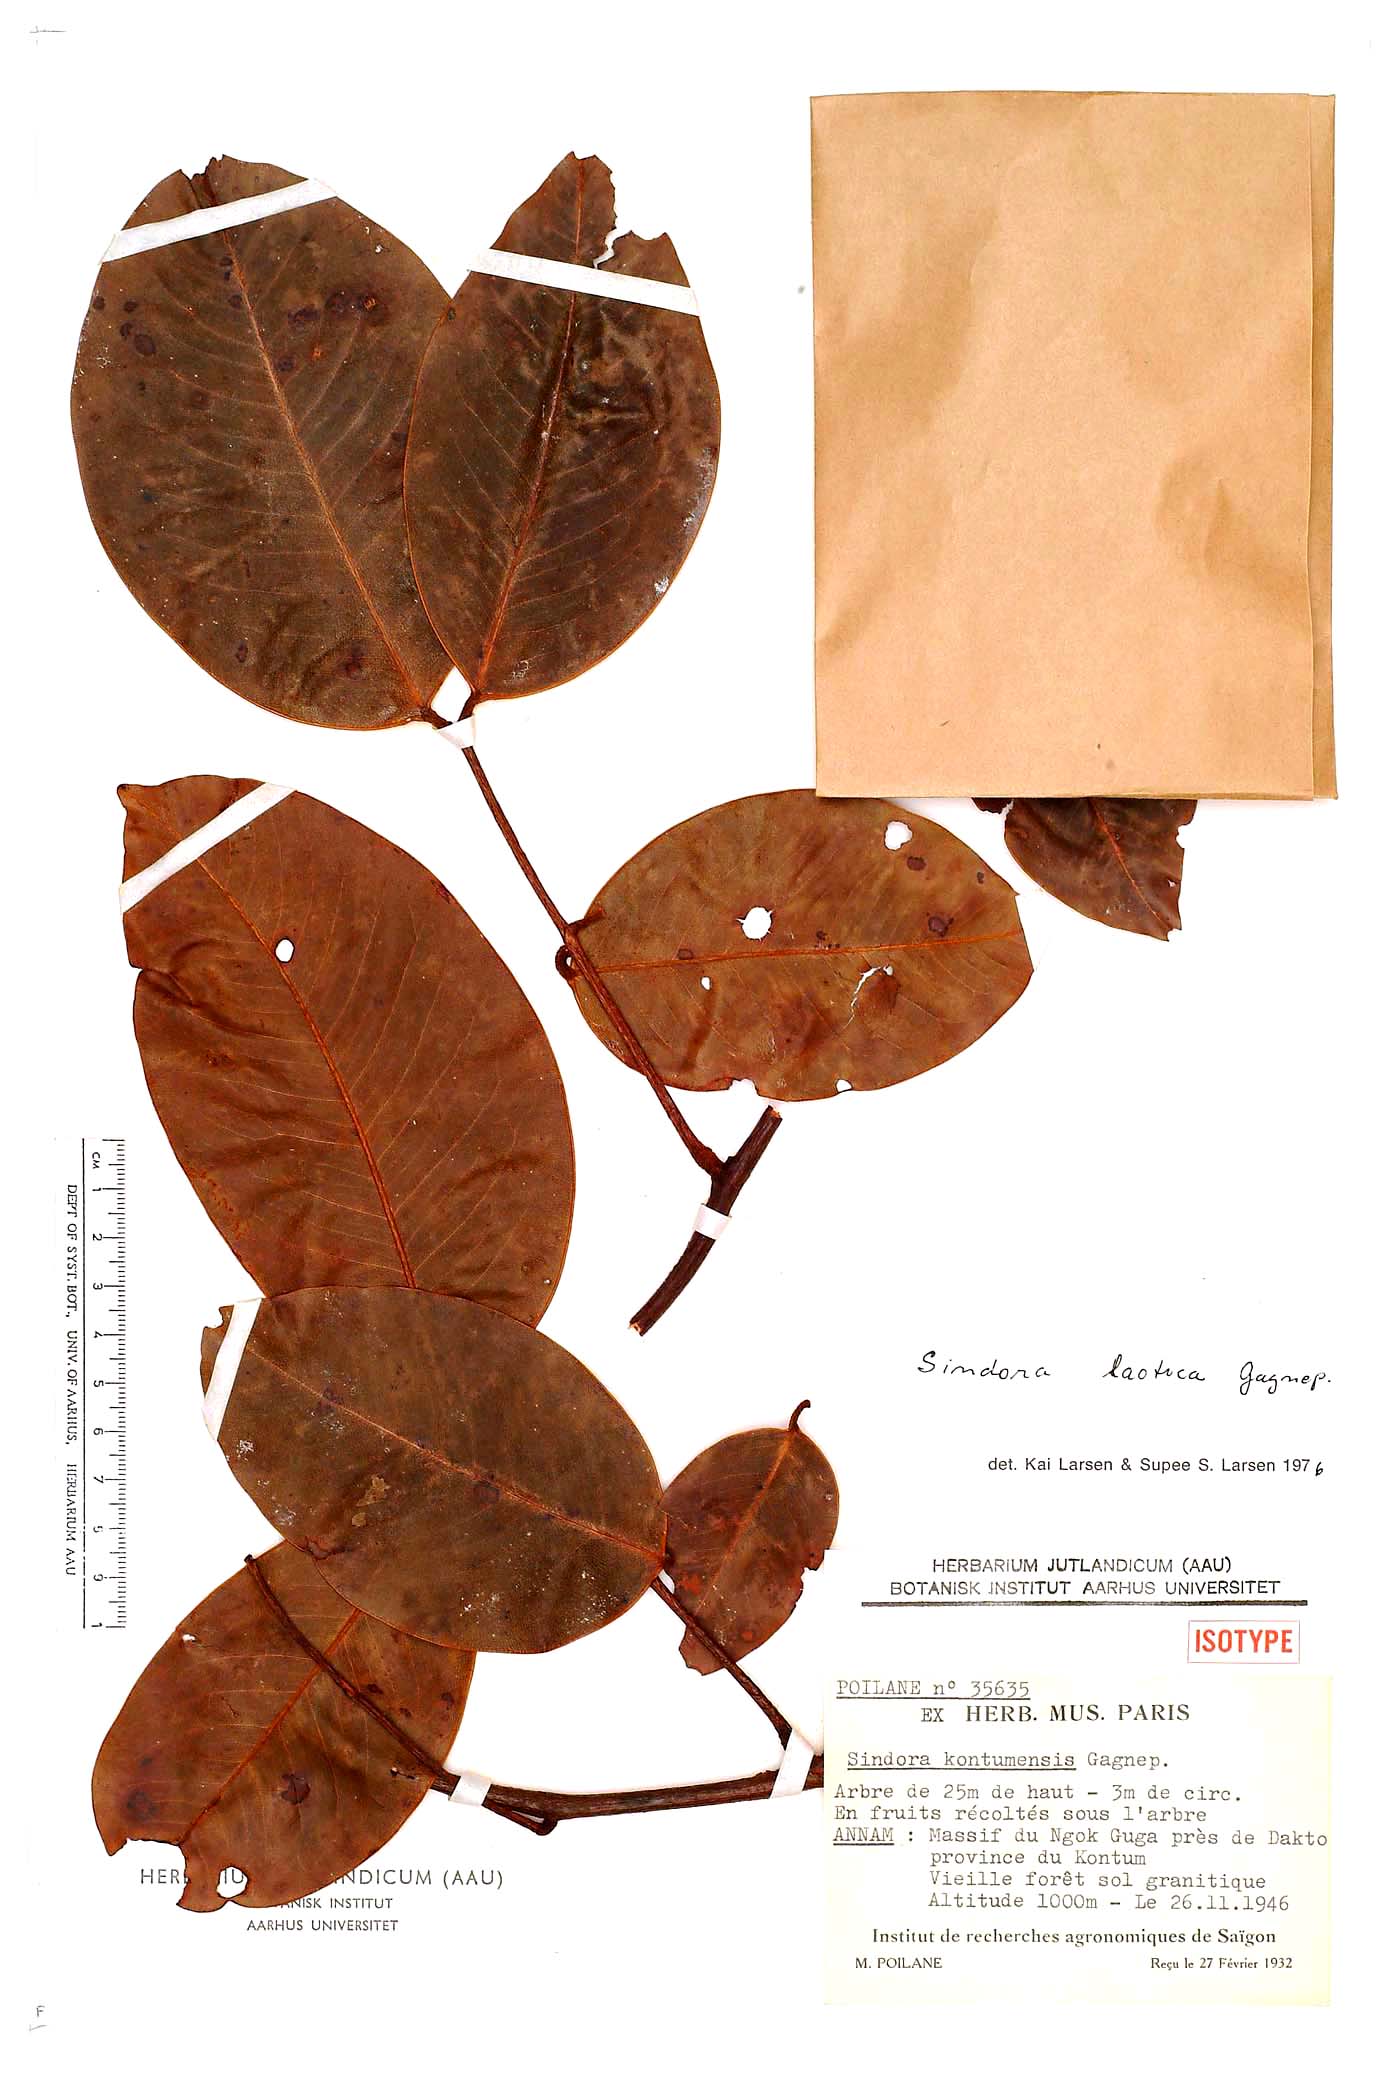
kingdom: Plantae
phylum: Tracheophyta
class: Magnoliopsida
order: Fabales
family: Fabaceae
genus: Sindora
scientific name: Sindora laotica
